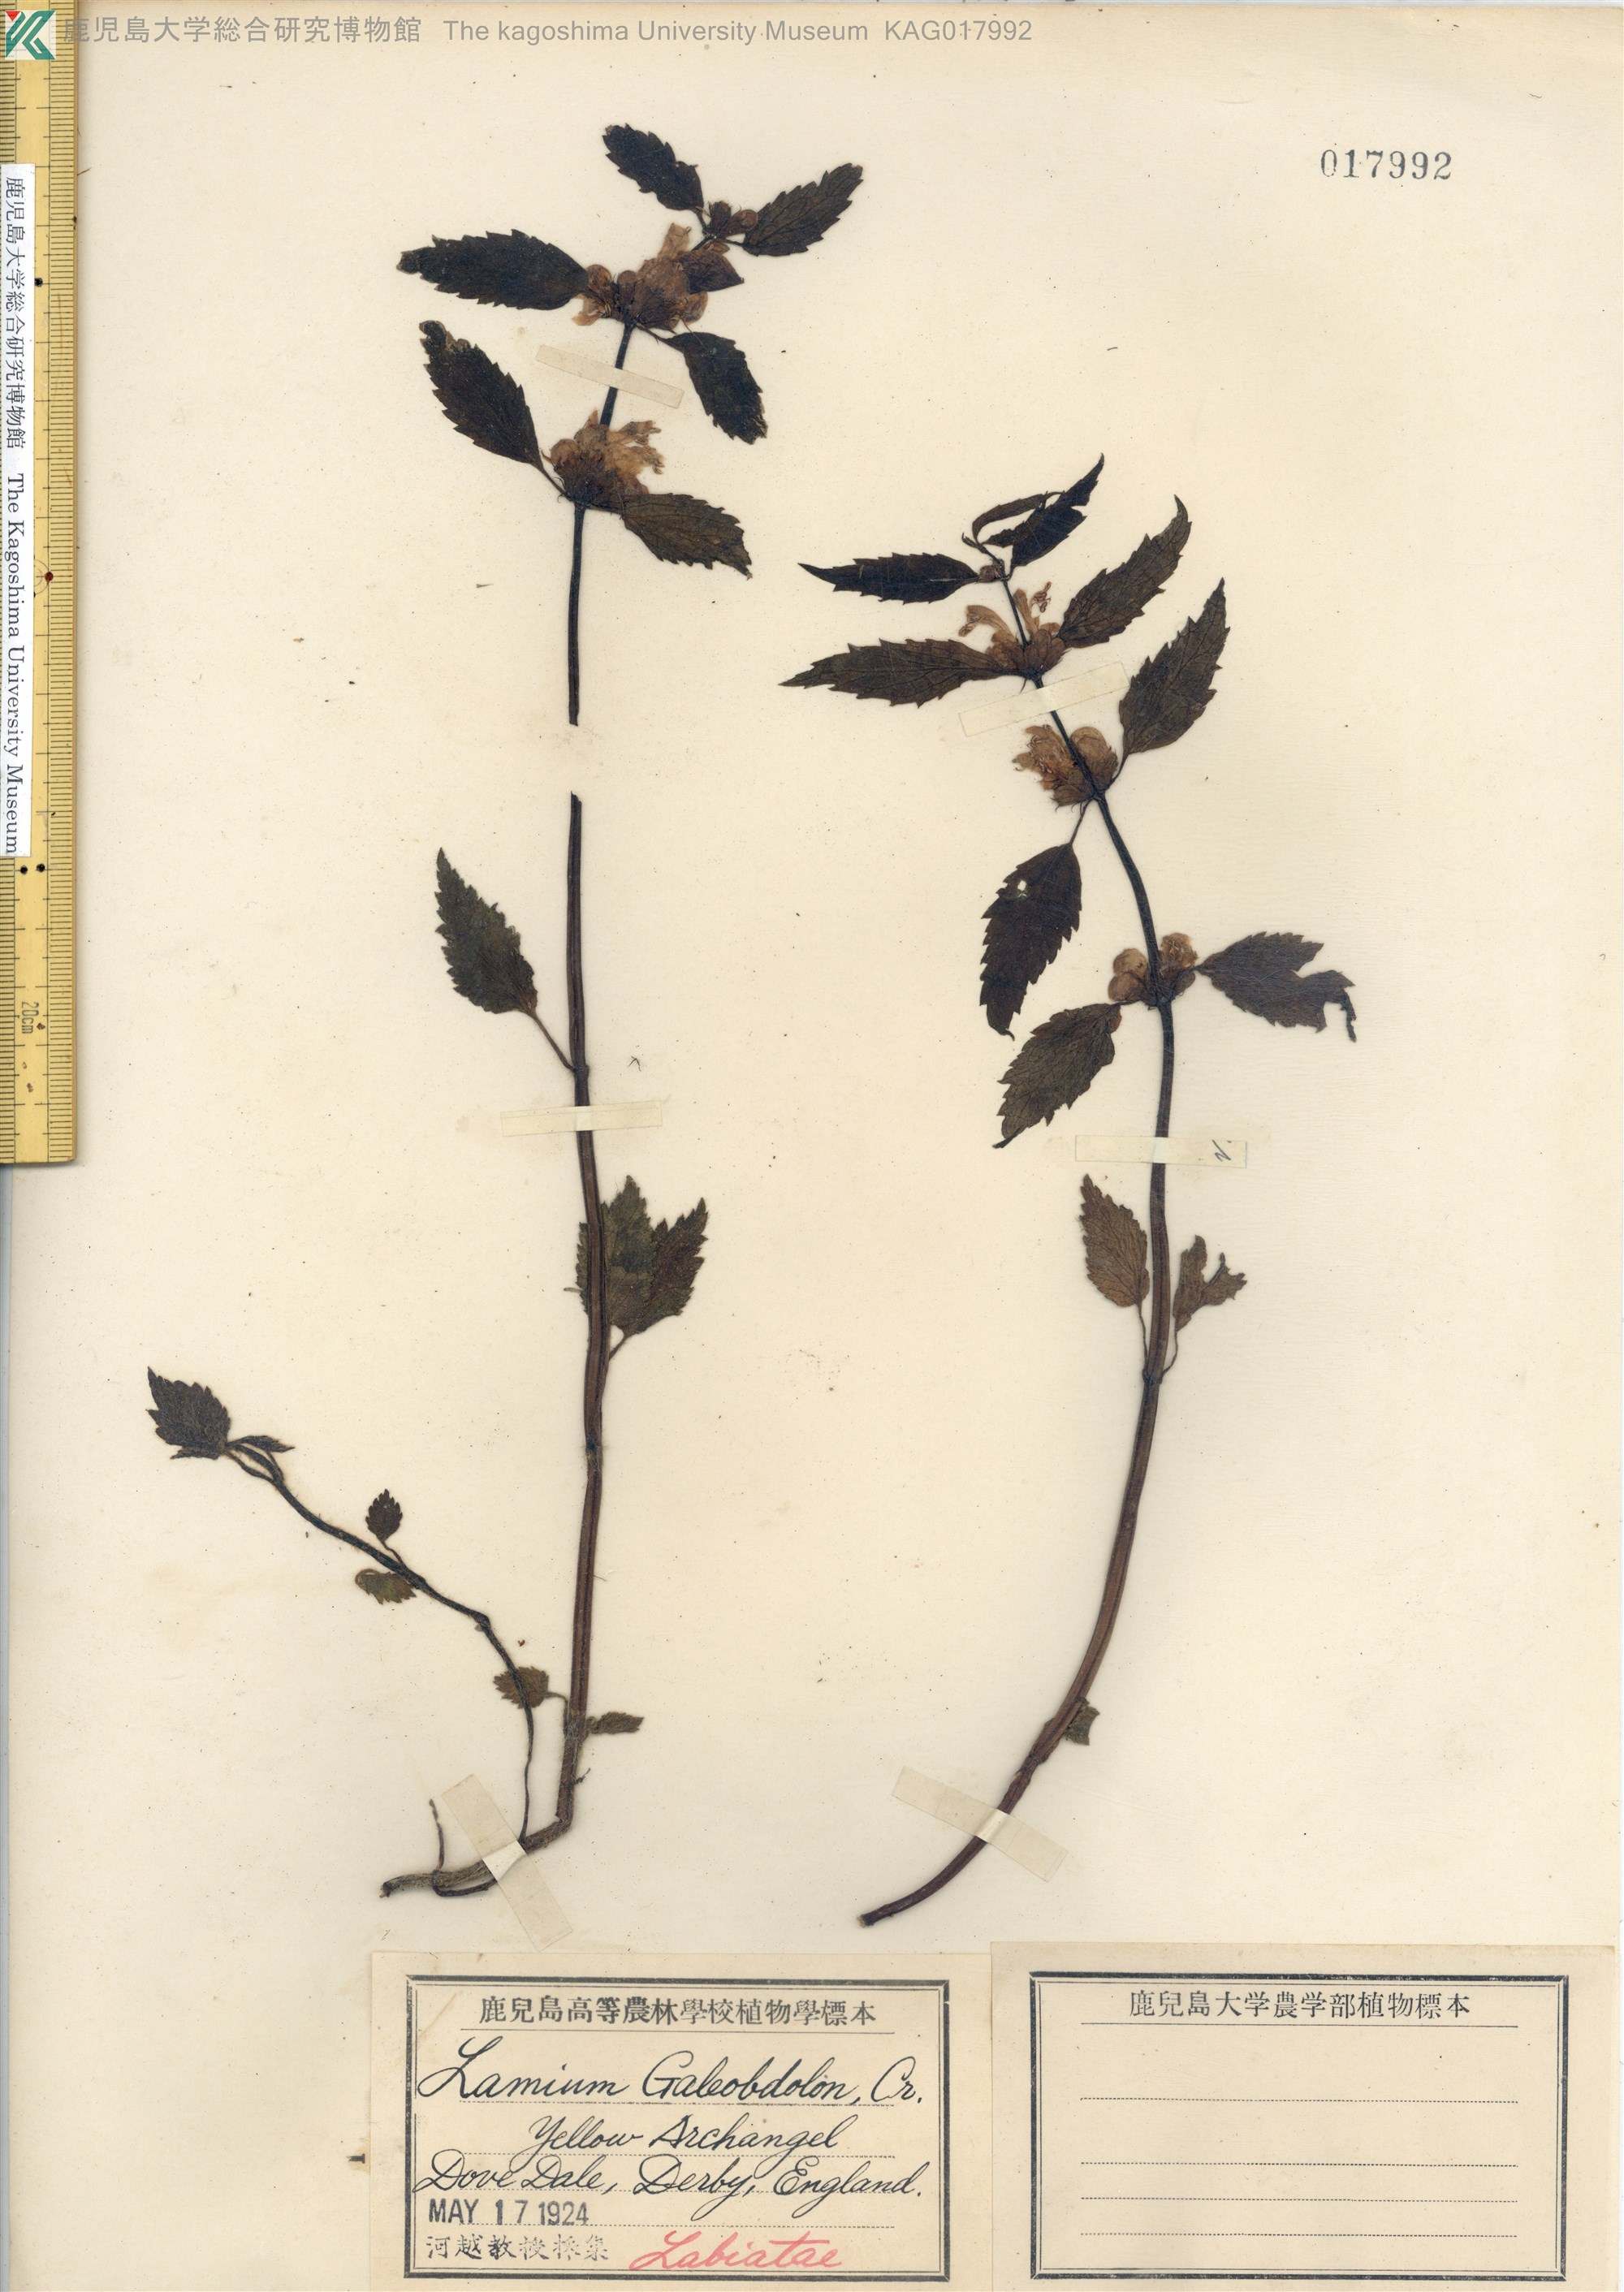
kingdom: Plantae
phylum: Tracheophyta
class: Magnoliopsida
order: Lamiales
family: Lamiaceae
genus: Lamium
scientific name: Lamium galeobdolon
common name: Yellow archangel
